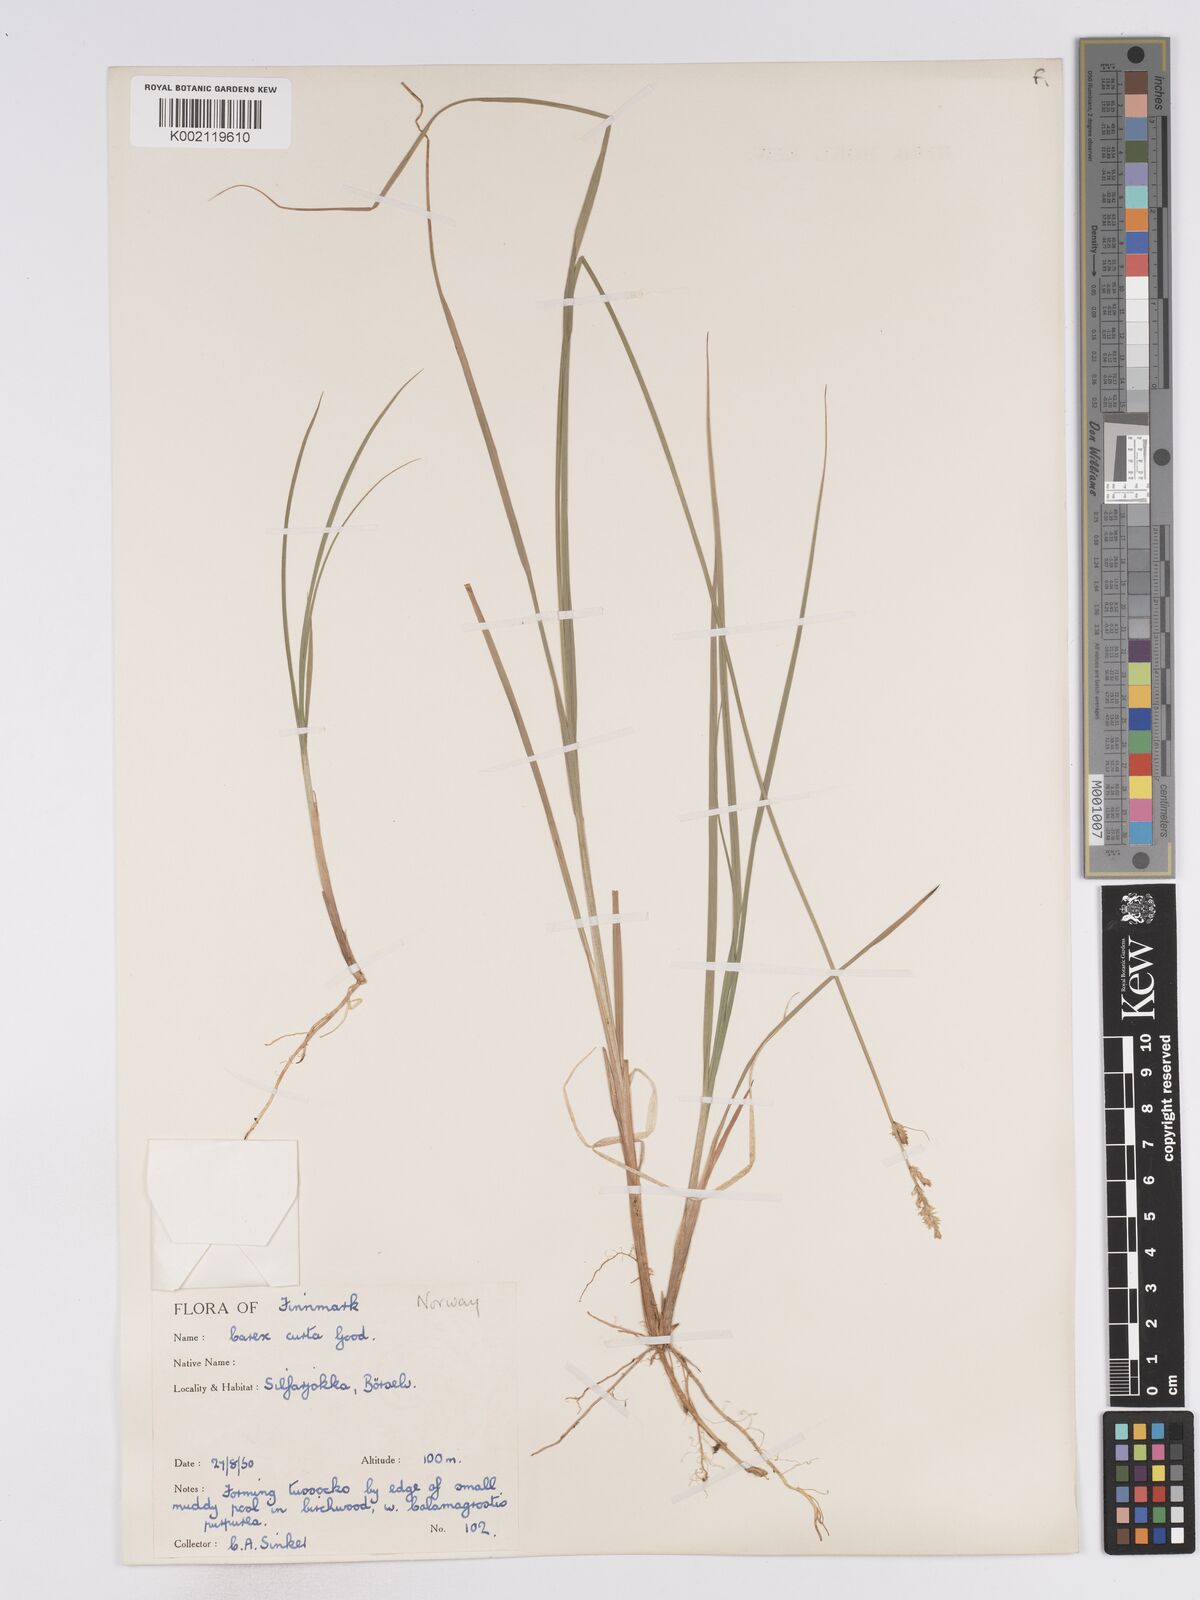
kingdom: Plantae
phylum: Tracheophyta
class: Liliopsida
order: Poales
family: Cyperaceae
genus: Carex
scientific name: Carex curta
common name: White sedge
